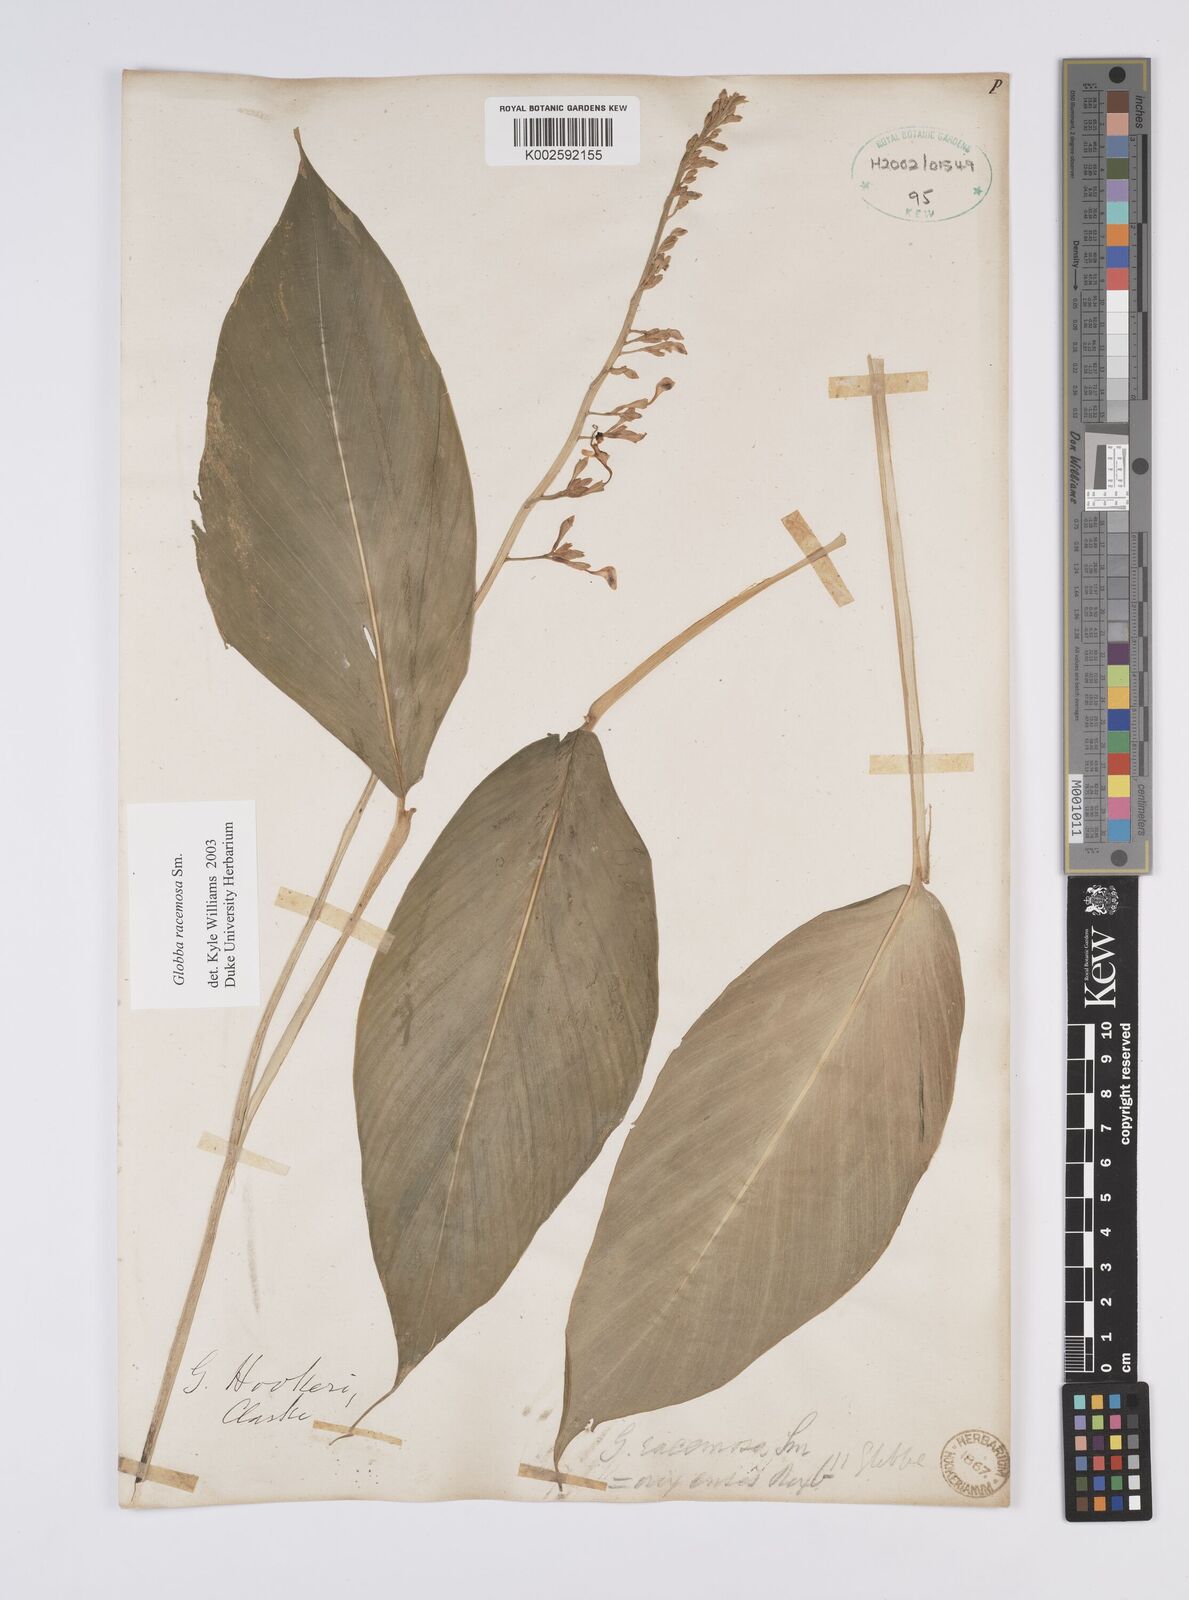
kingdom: Plantae
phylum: Tracheophyta
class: Liliopsida
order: Zingiberales
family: Zingiberaceae
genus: Globba
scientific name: Globba racemosa
